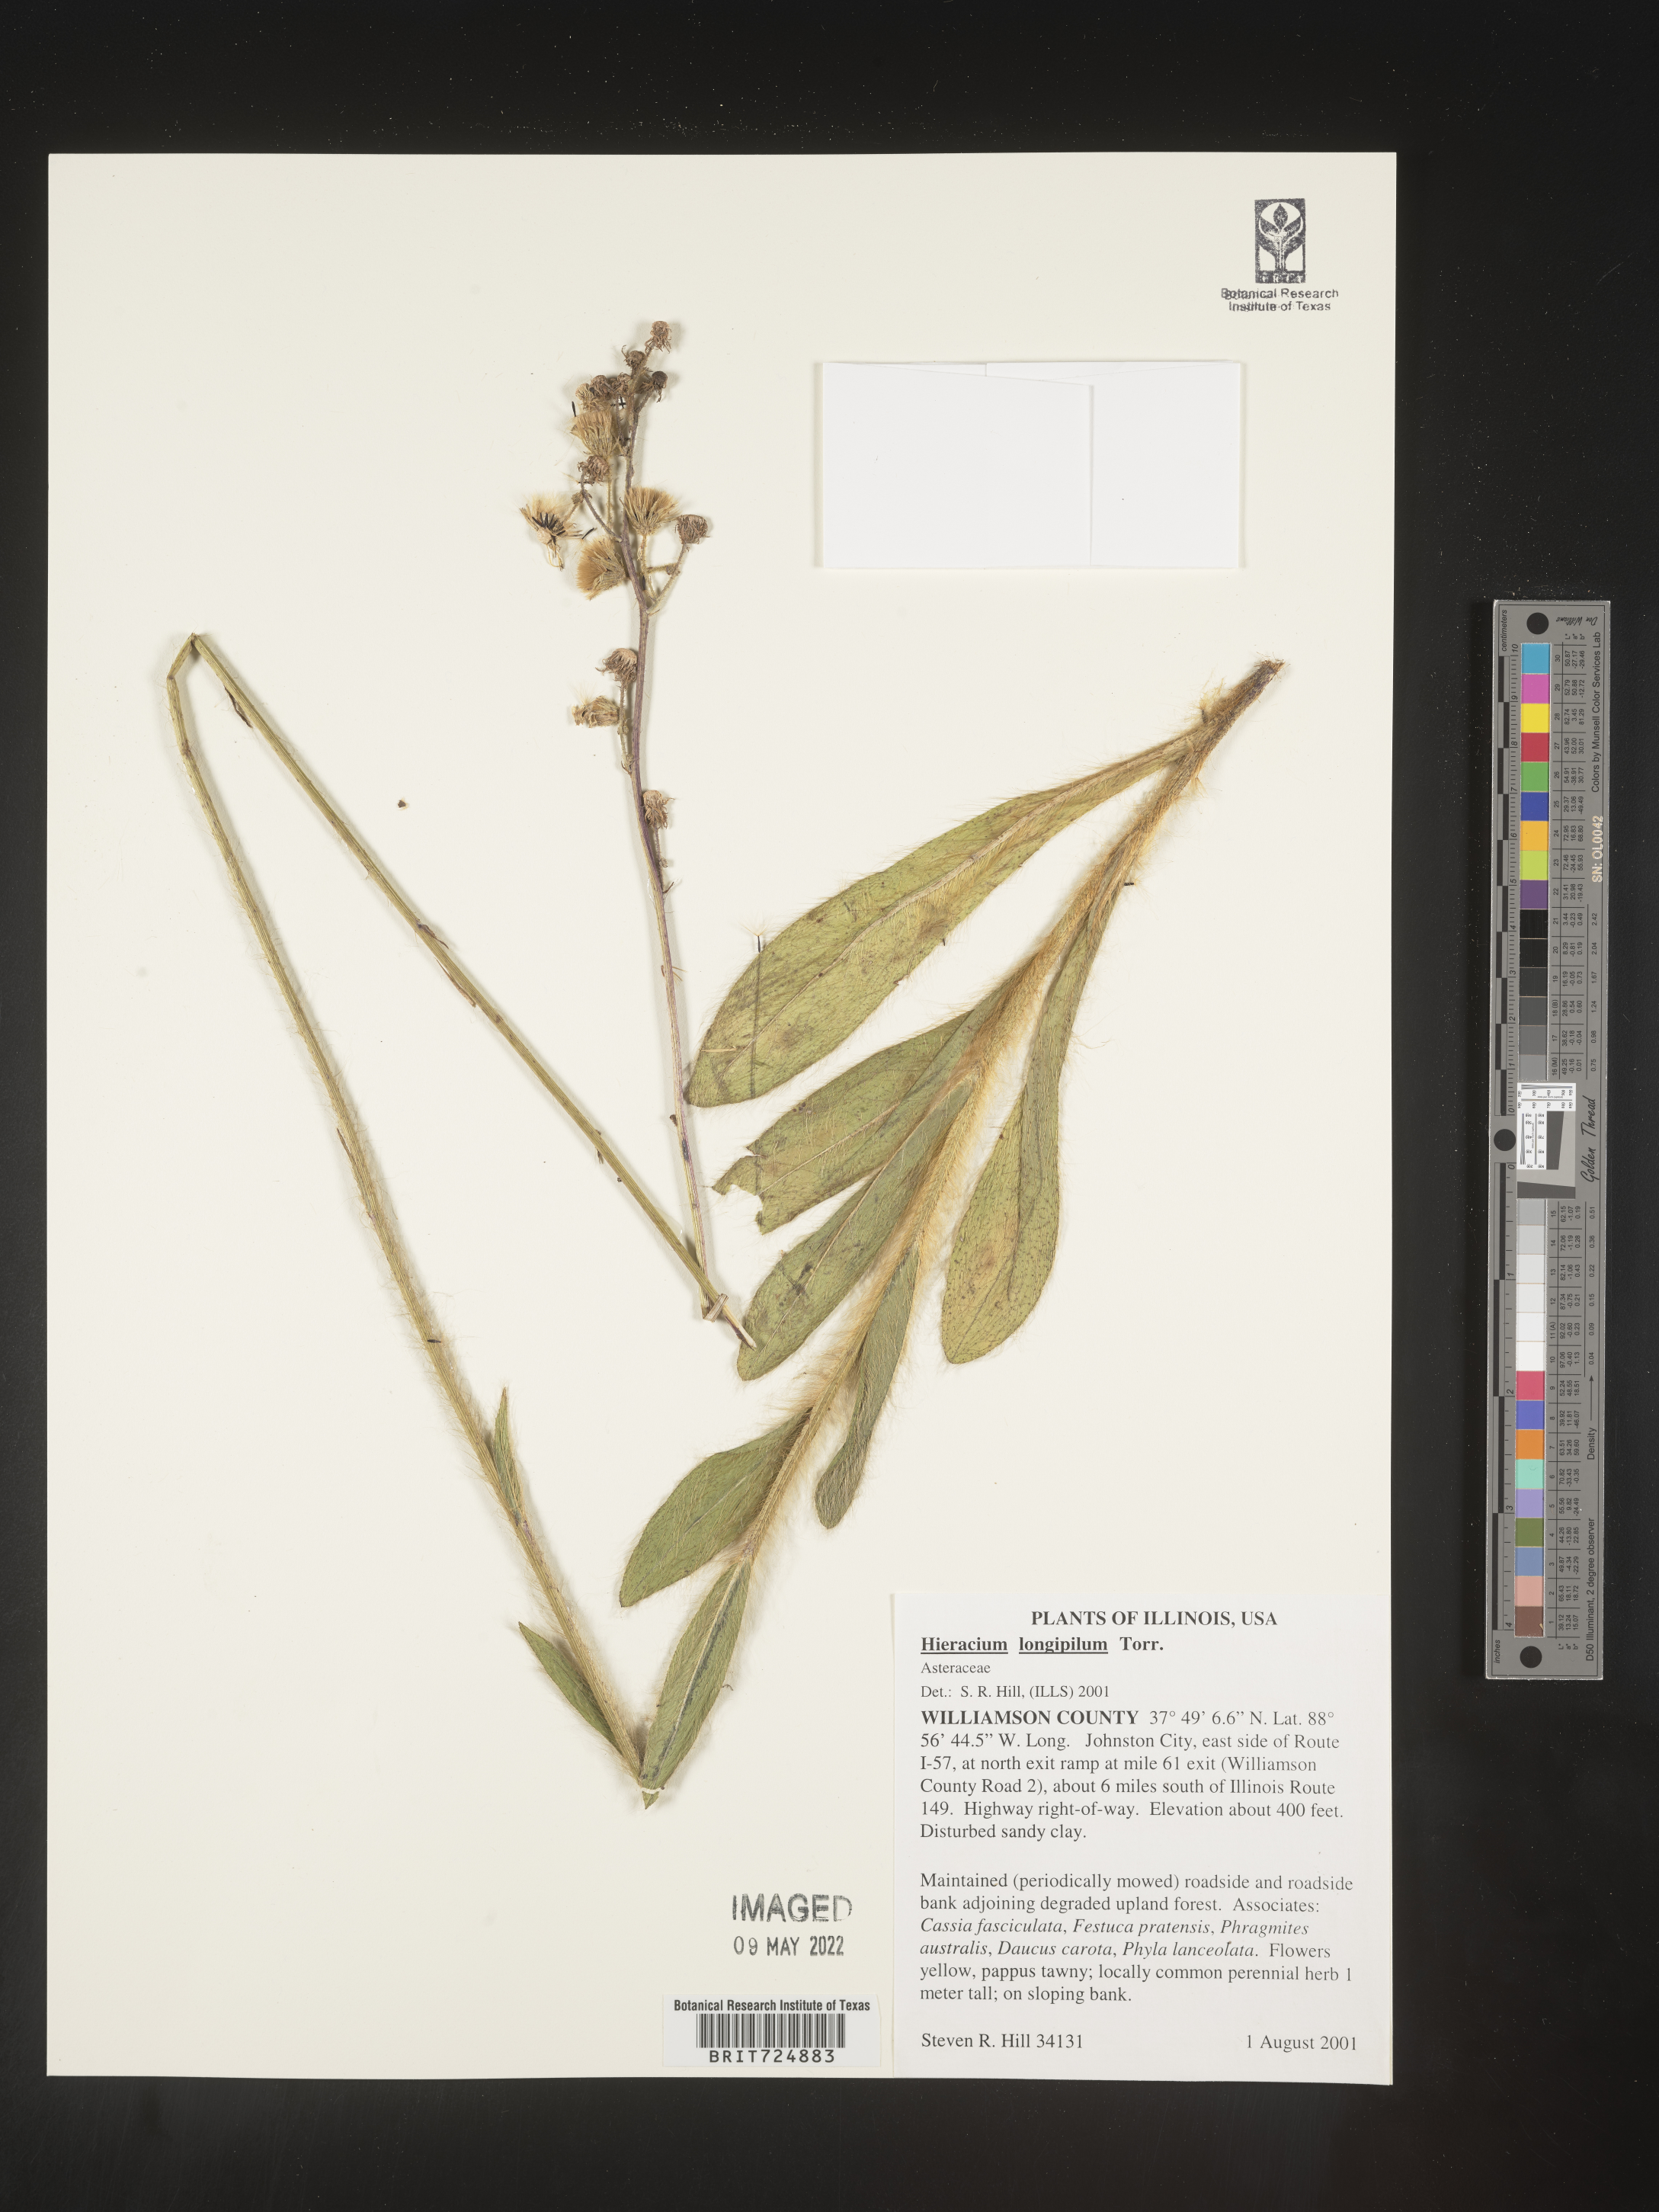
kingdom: Plantae
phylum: Tracheophyta
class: Magnoliopsida
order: Asterales
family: Asteraceae
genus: Hieracium
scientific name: Hieracium longipilum
